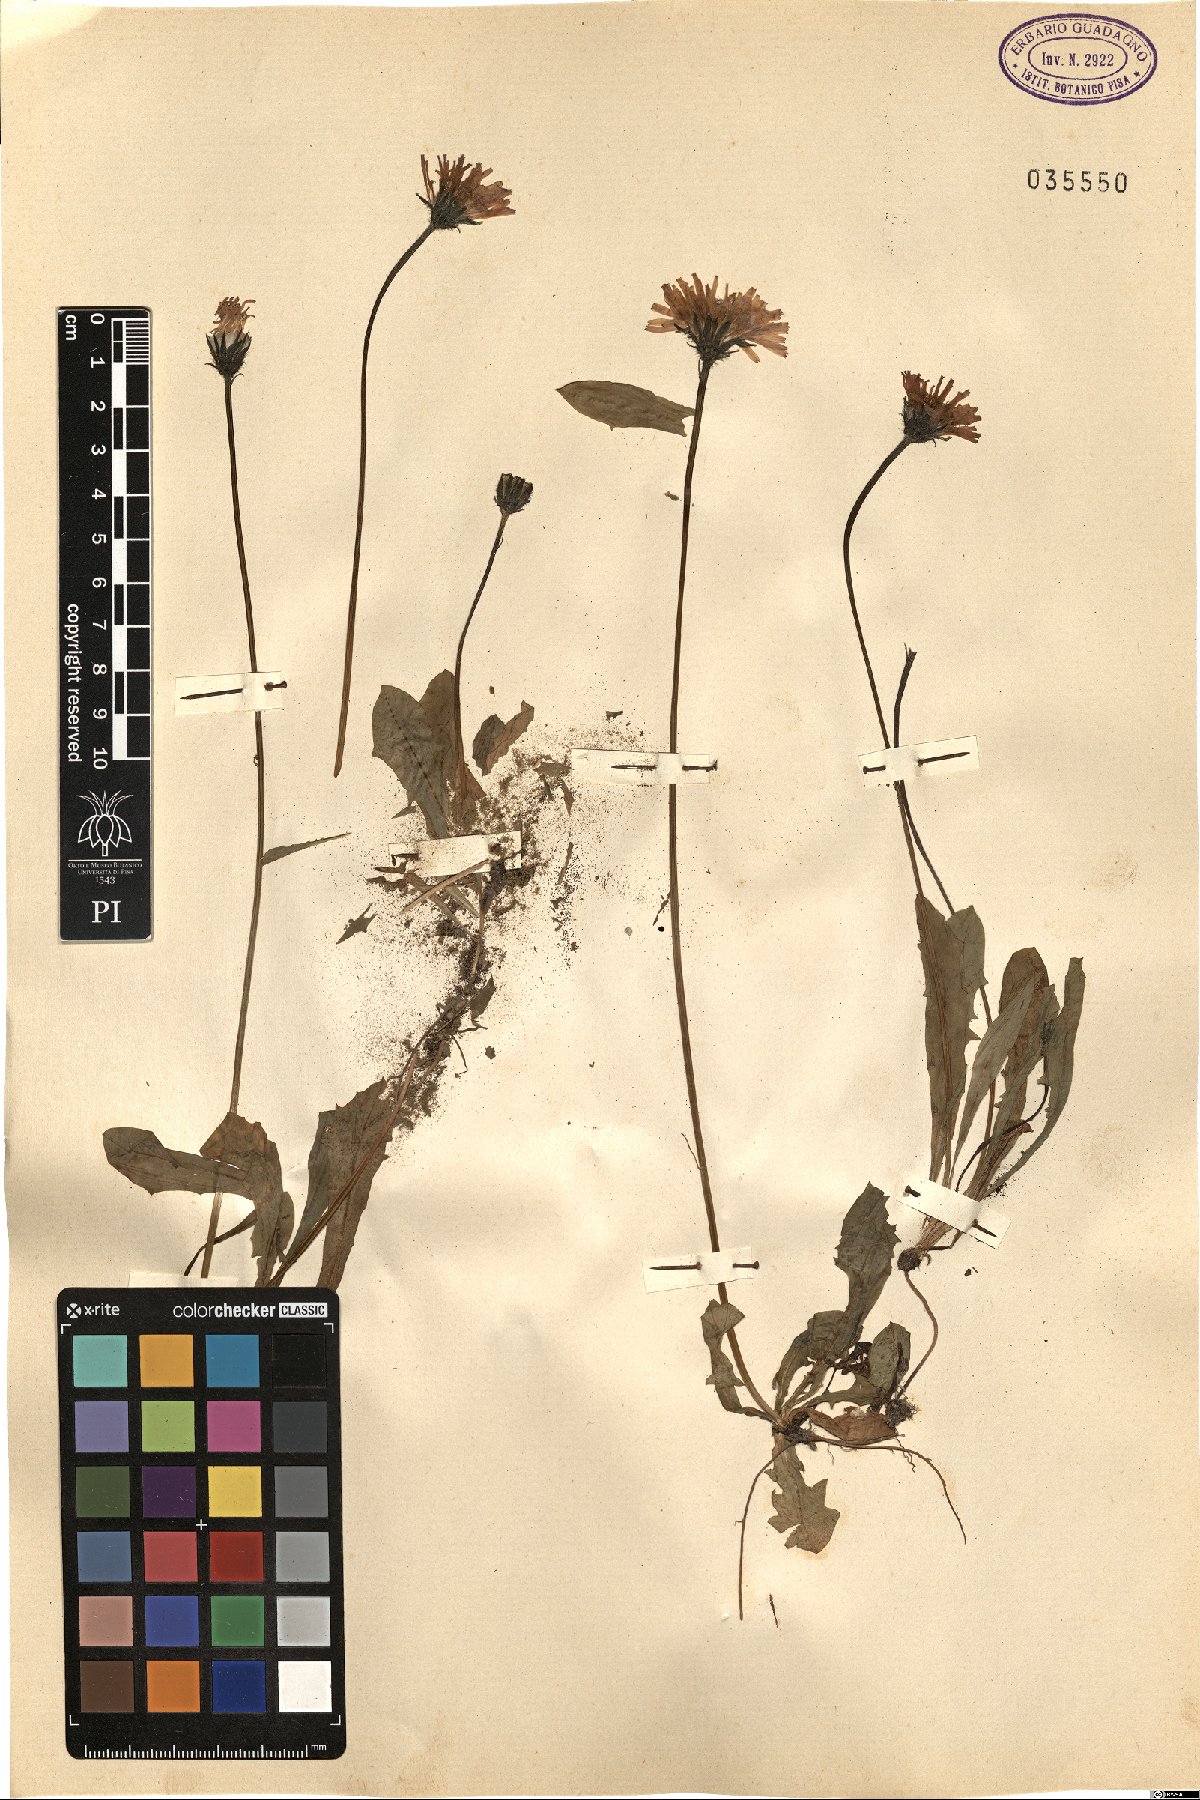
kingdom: Plantae
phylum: Tracheophyta
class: Magnoliopsida
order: Asterales
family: Asteraceae
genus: Crepis
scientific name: Crepis
